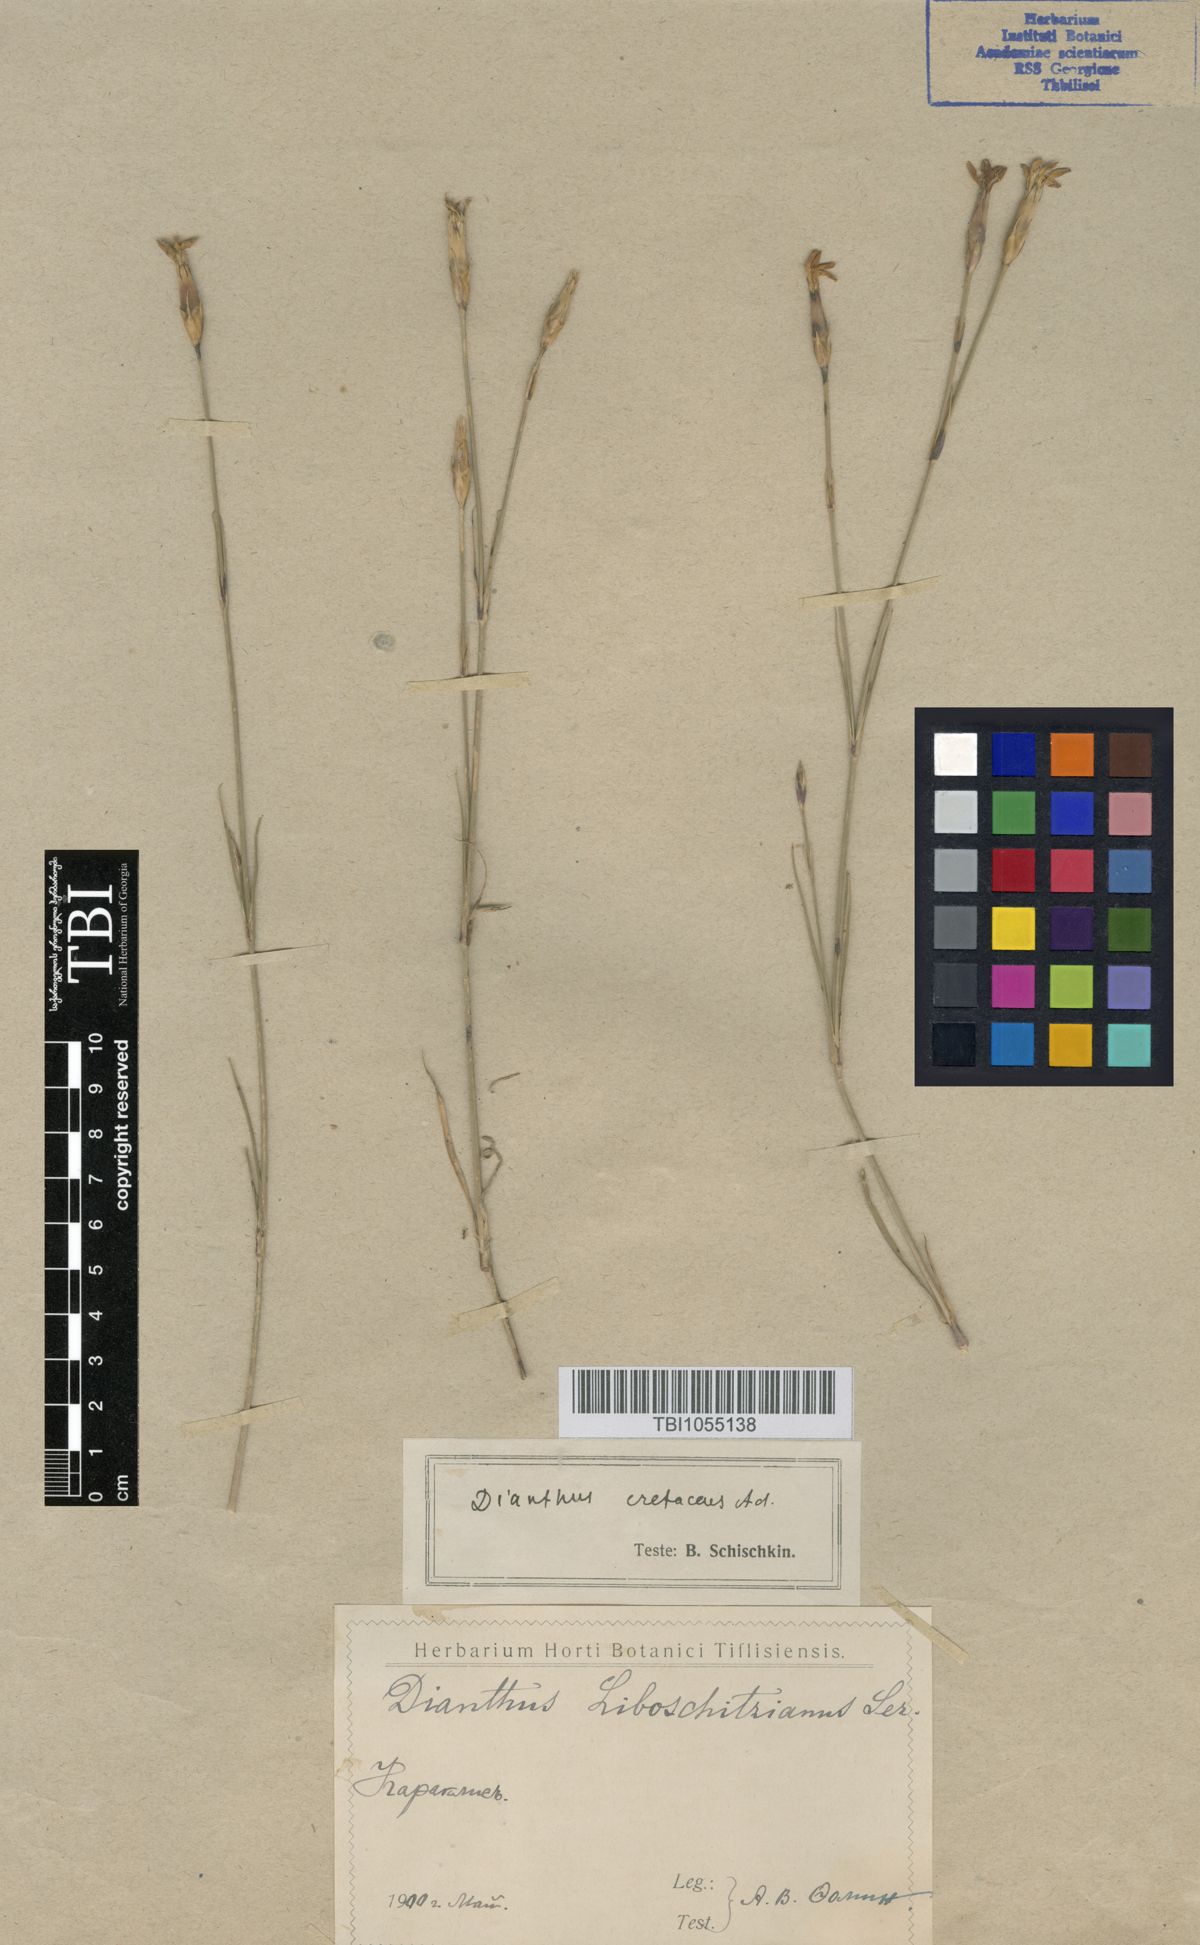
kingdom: Plantae
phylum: Tracheophyta
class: Magnoliopsida
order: Caryophyllales
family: Caryophyllaceae
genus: Dianthus
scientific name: Dianthus cretaceus
